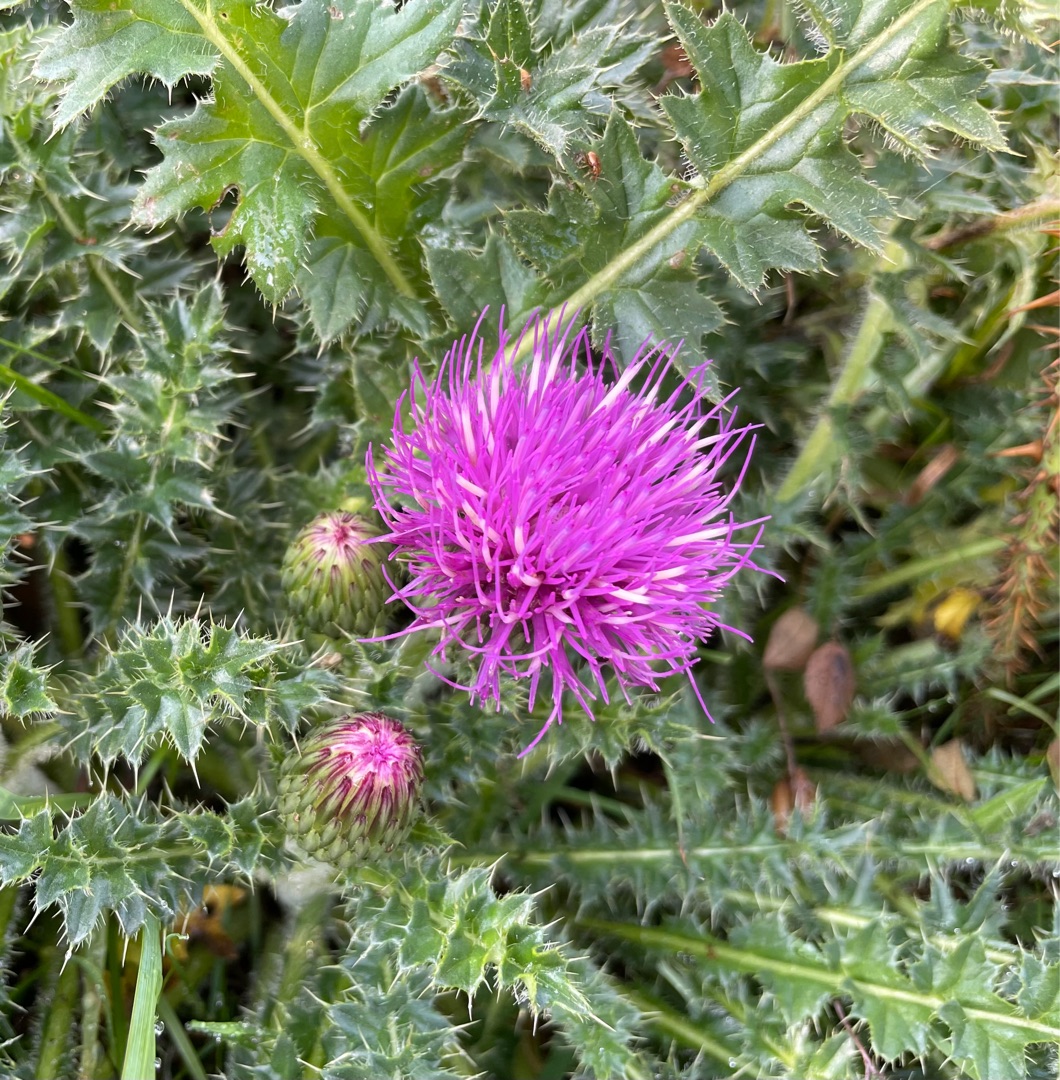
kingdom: Plantae
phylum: Tracheophyta
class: Magnoliopsida
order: Asterales
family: Asteraceae
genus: Cirsium
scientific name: Cirsium acaule
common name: Lav tidsel
